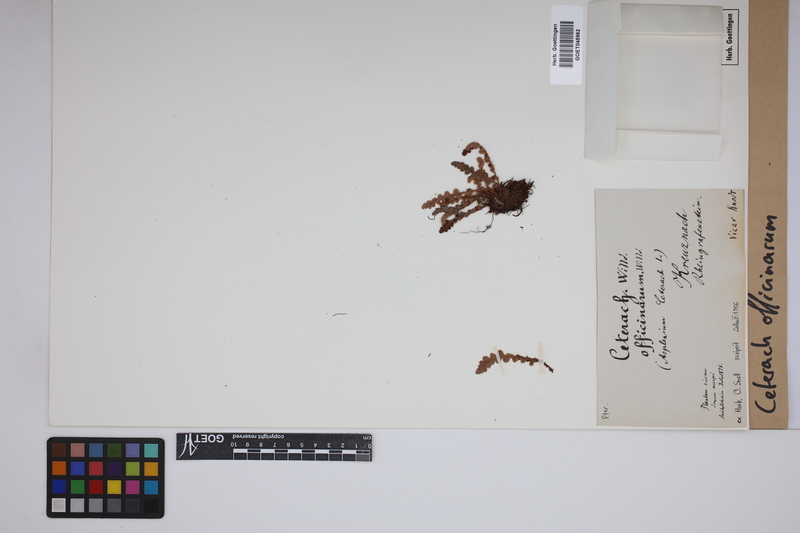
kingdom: Plantae
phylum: Tracheophyta
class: Polypodiopsida
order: Polypodiales
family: Aspleniaceae
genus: Asplenium
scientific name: Asplenium ceterach
